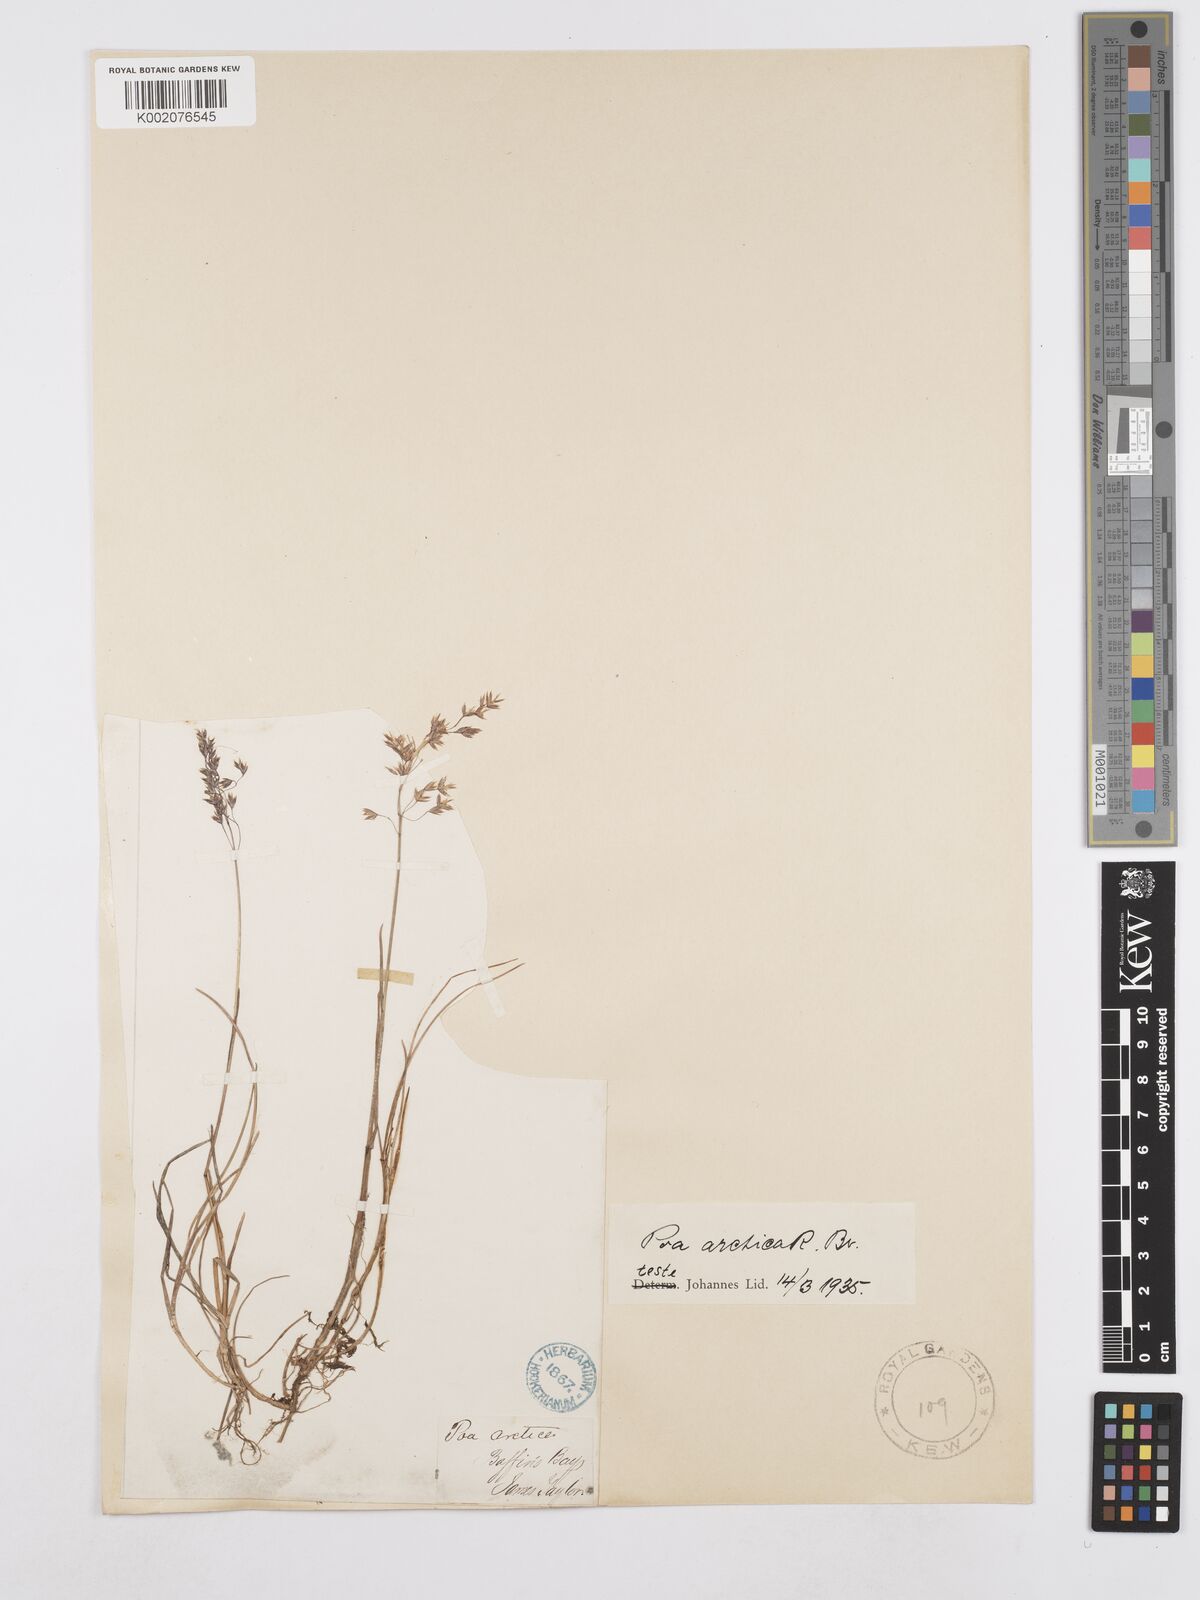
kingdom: Plantae
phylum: Tracheophyta
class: Liliopsida
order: Poales
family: Poaceae
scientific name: Poaceae
